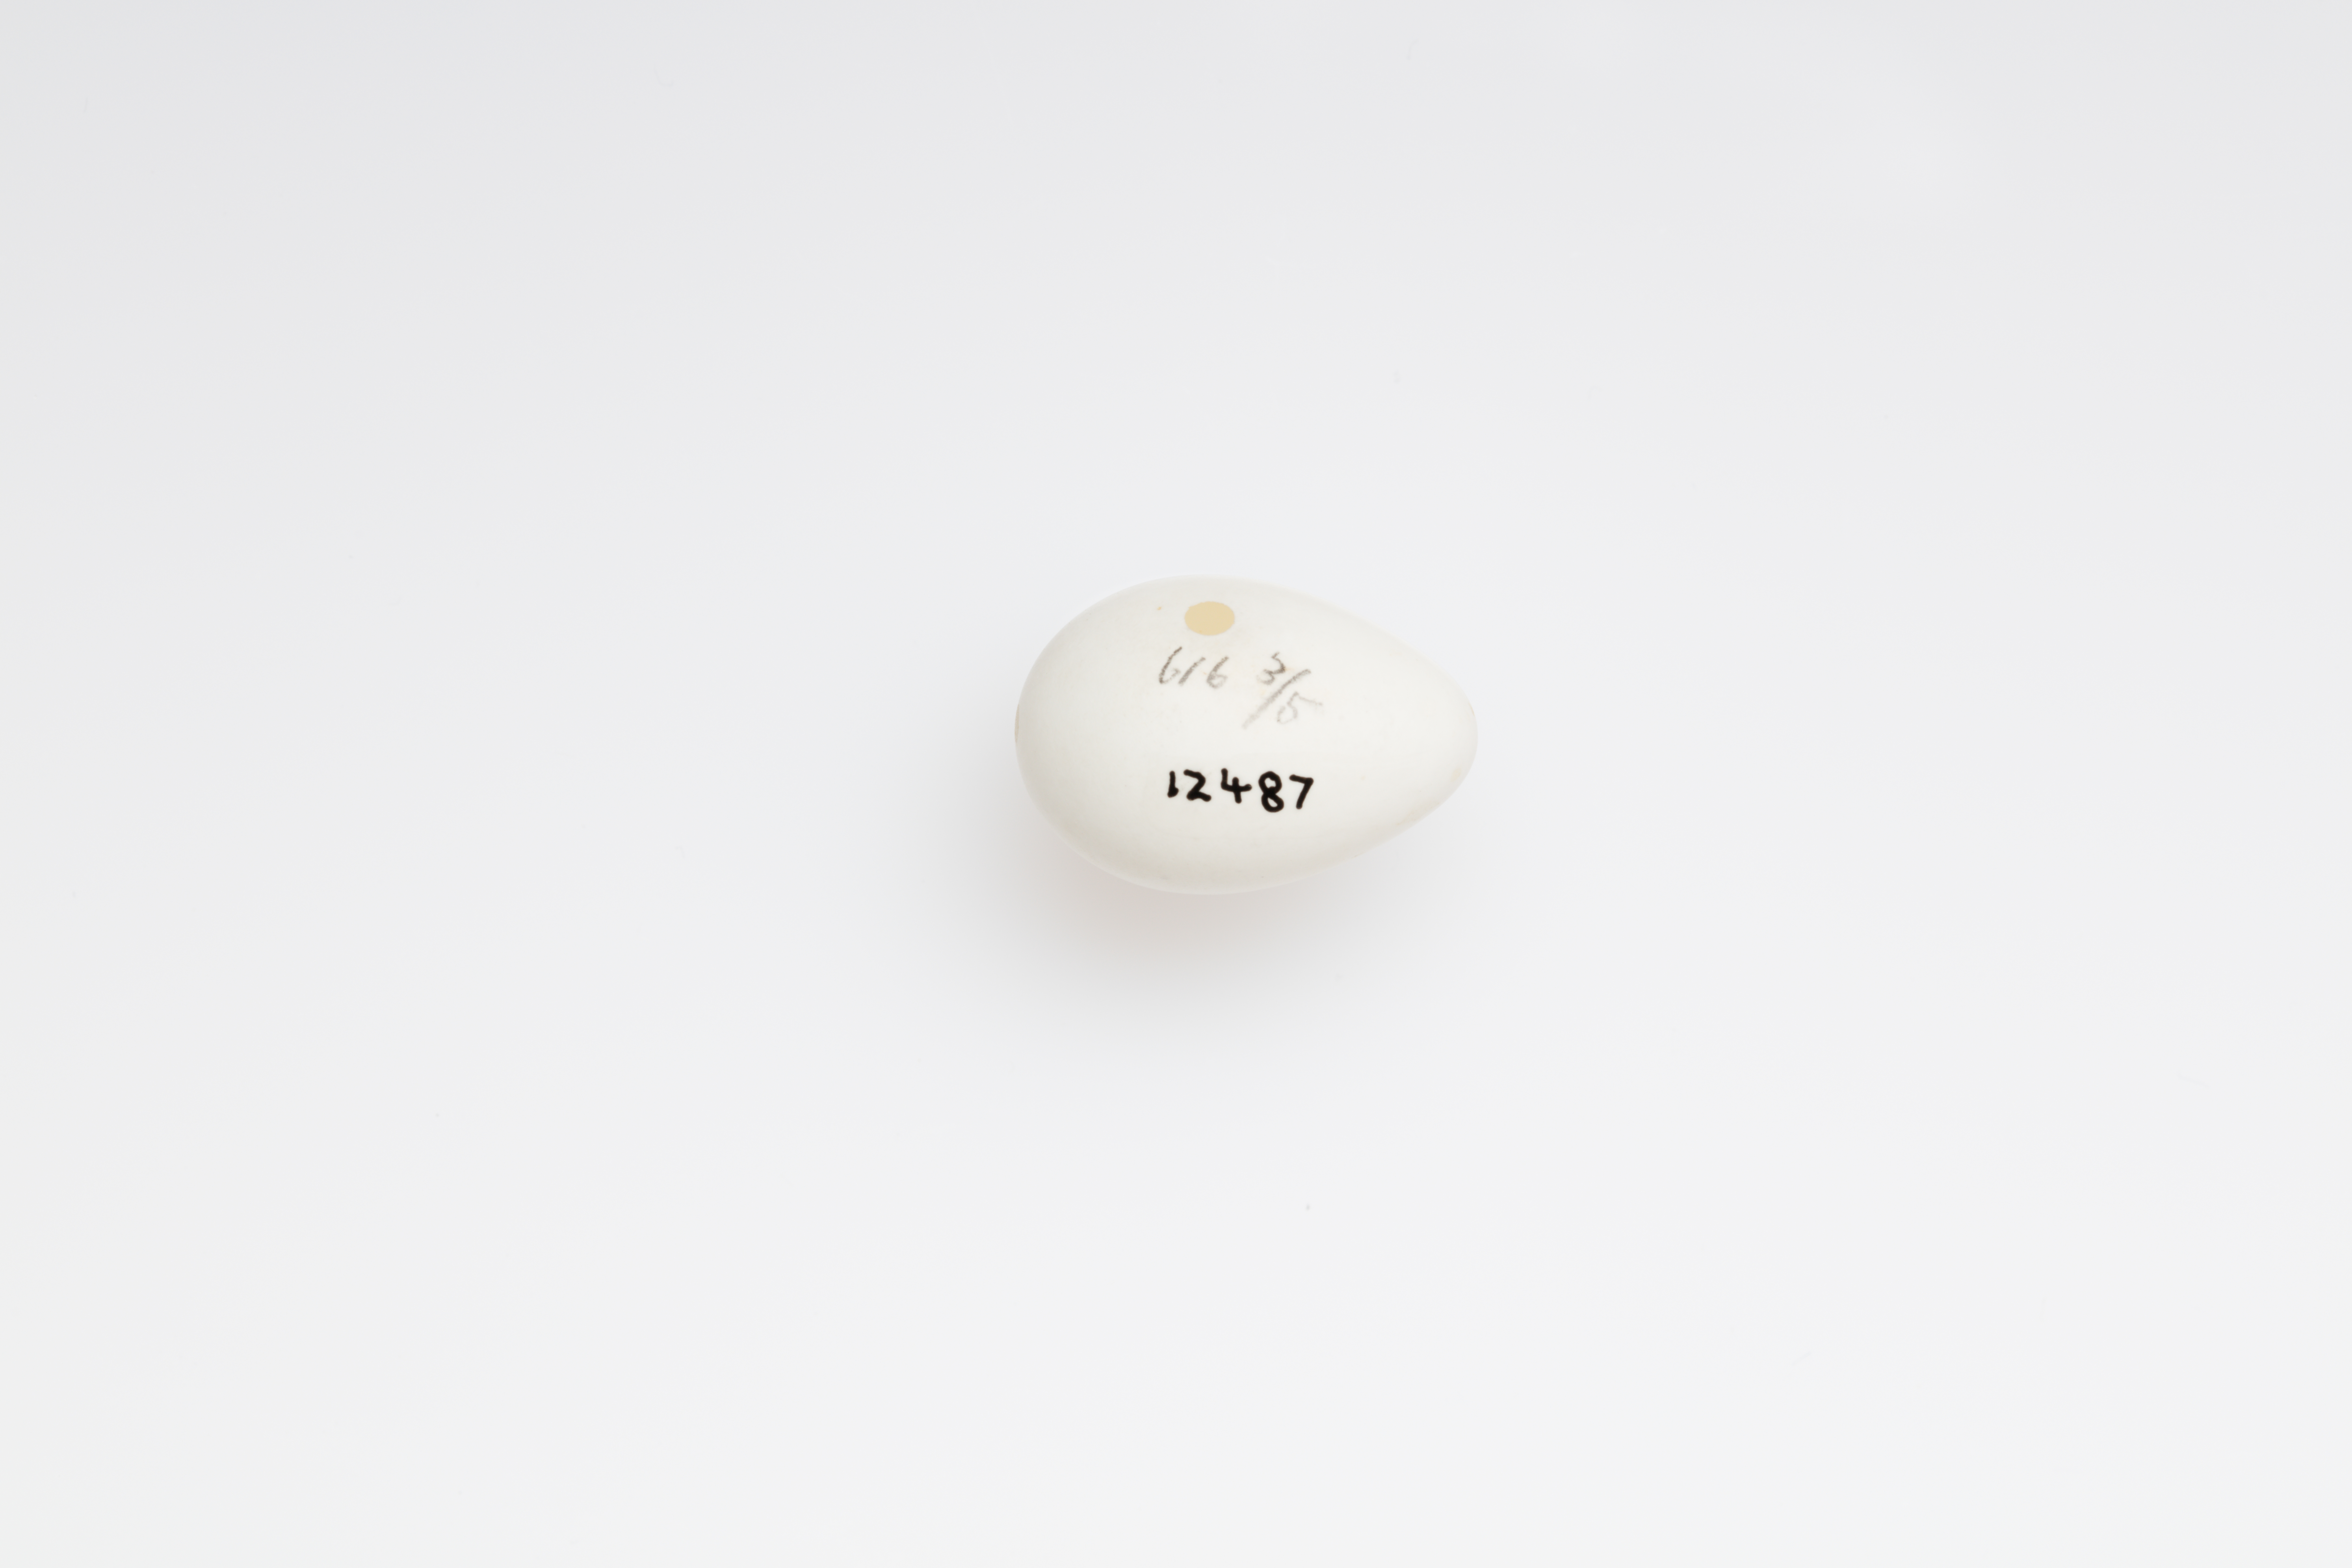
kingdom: Animalia
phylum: Chordata
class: Aves
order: Passeriformes
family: Hirundinidae
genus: Riparia
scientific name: Riparia riparia
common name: Sand martin
